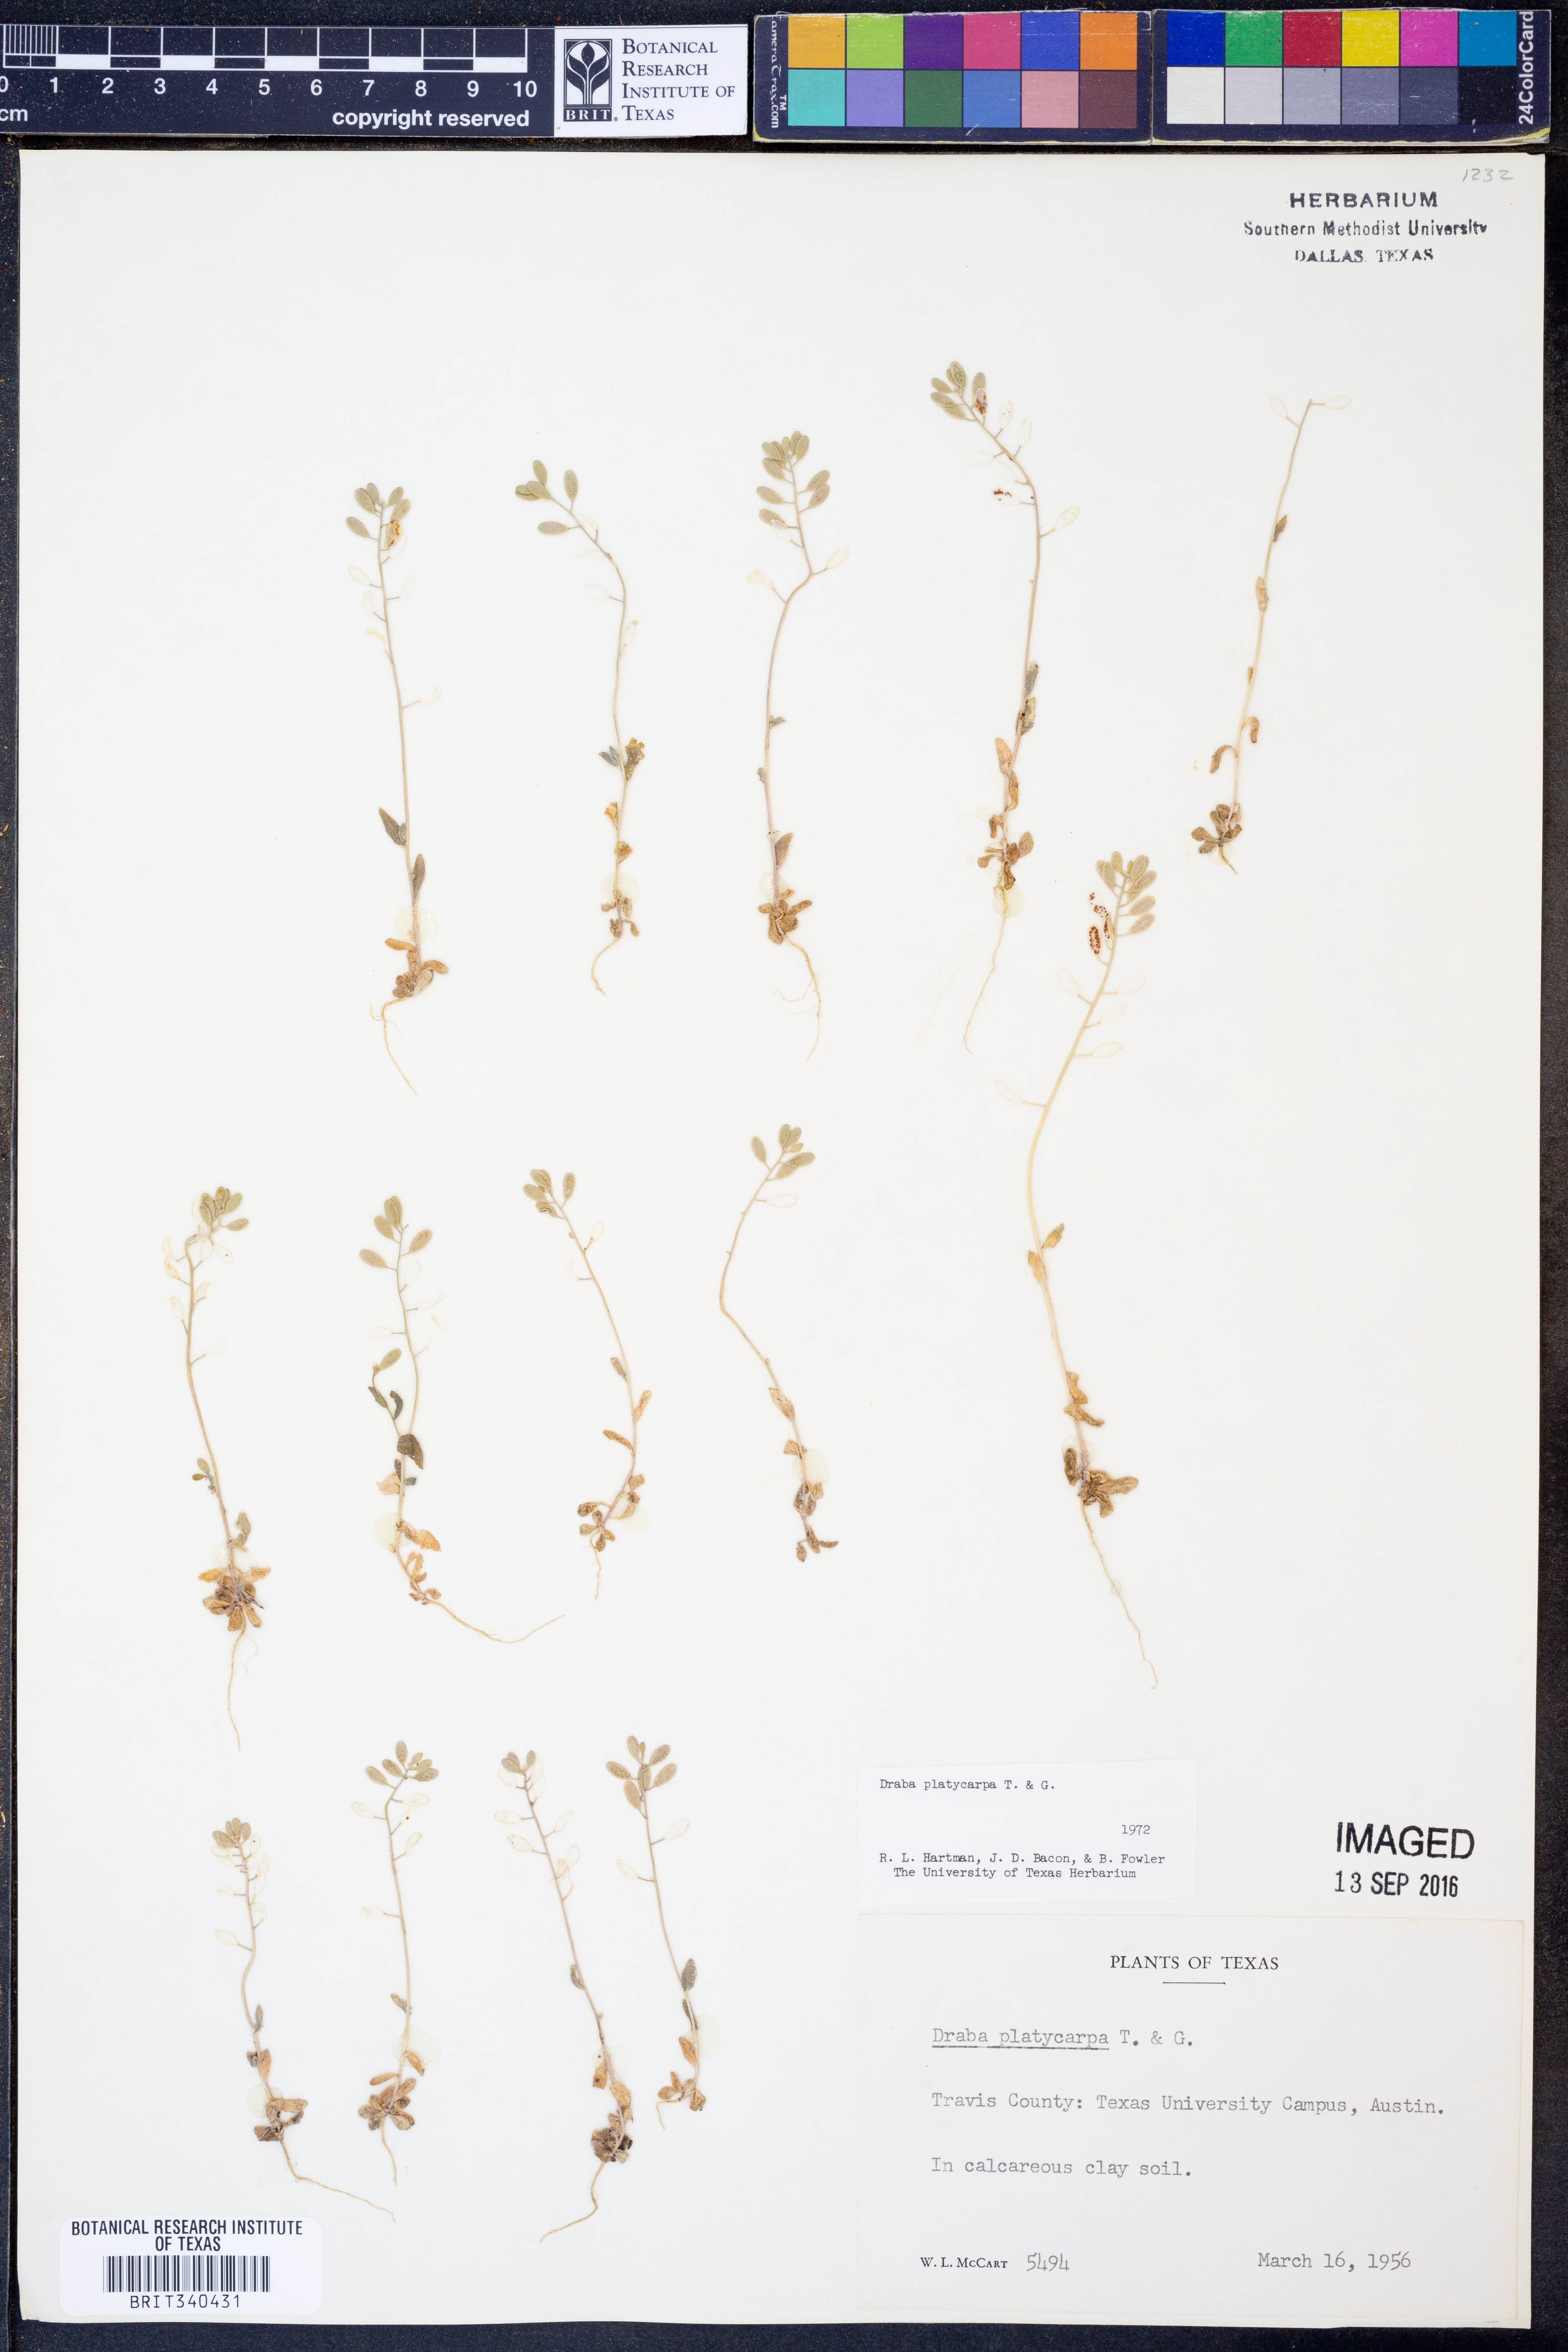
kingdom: Plantae
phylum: Tracheophyta
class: Magnoliopsida
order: Brassicales
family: Brassicaceae
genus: Tomostima
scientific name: Tomostima platycarpa
